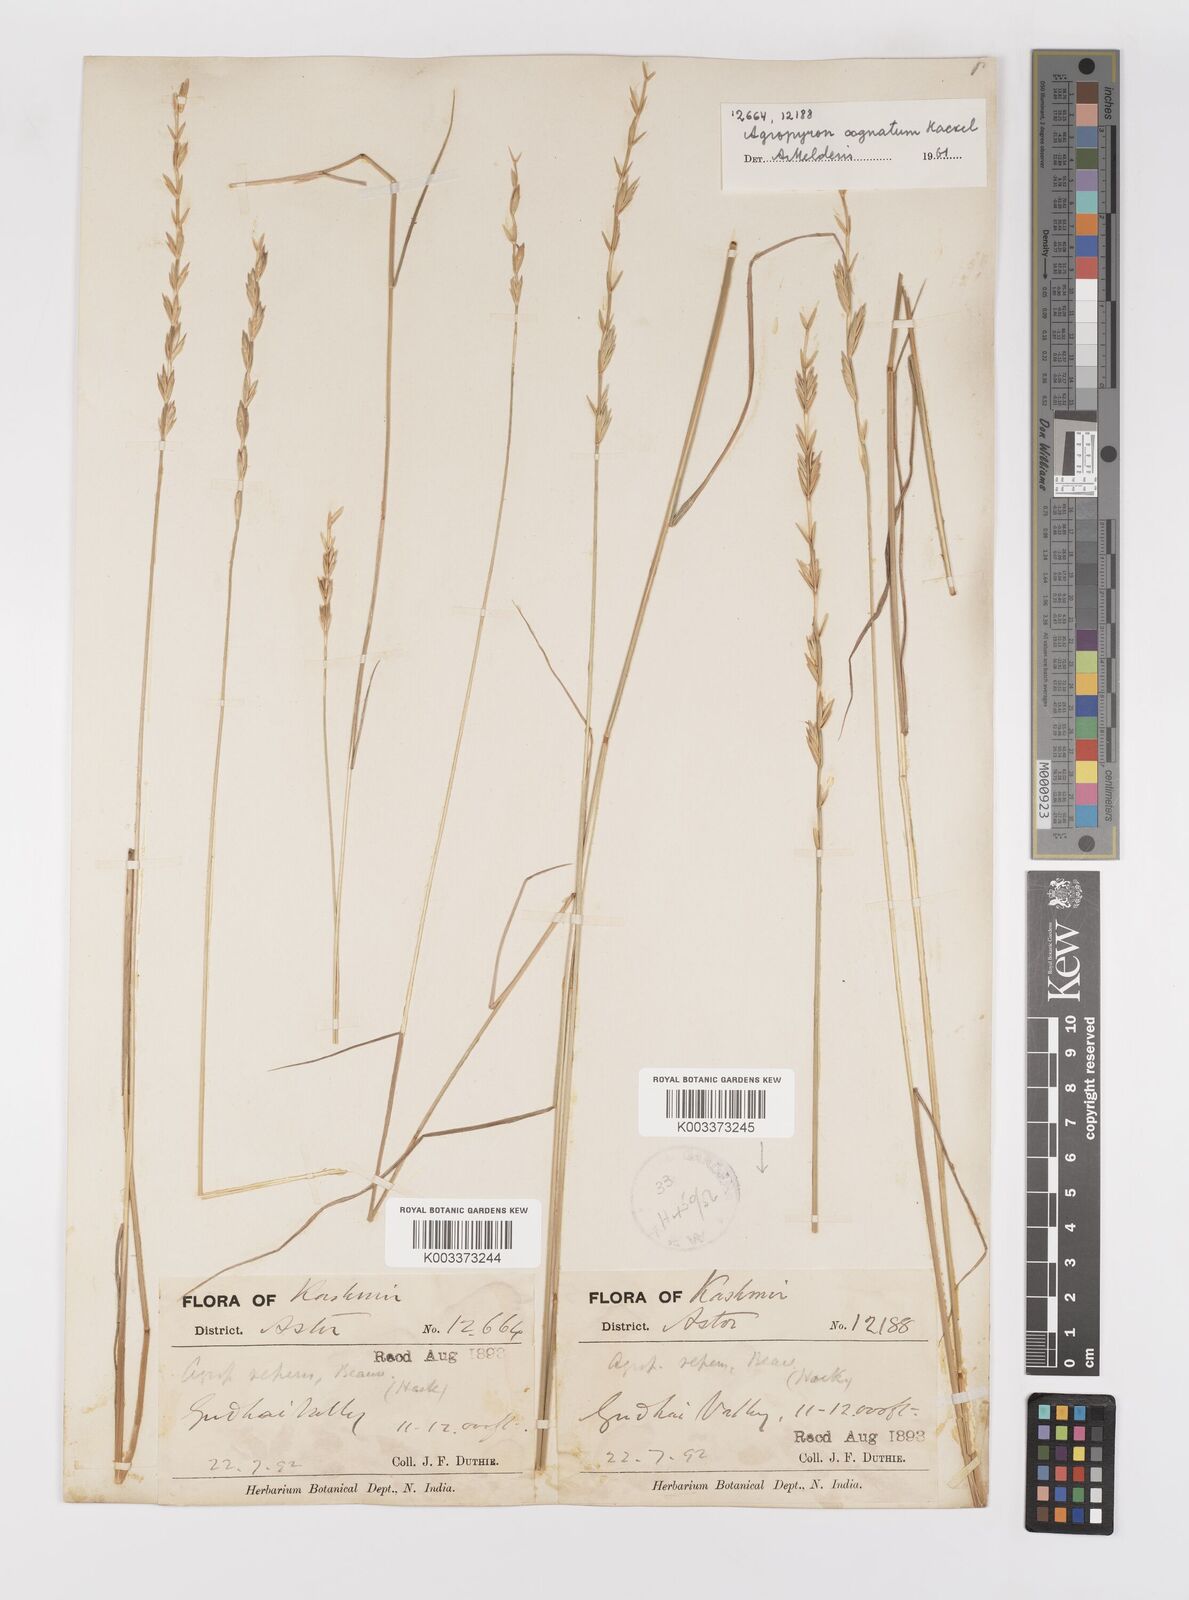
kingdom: Plantae
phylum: Tracheophyta
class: Liliopsida
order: Poales
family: Poaceae
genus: Pseudoroegneria
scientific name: Pseudoroegneria cognata
